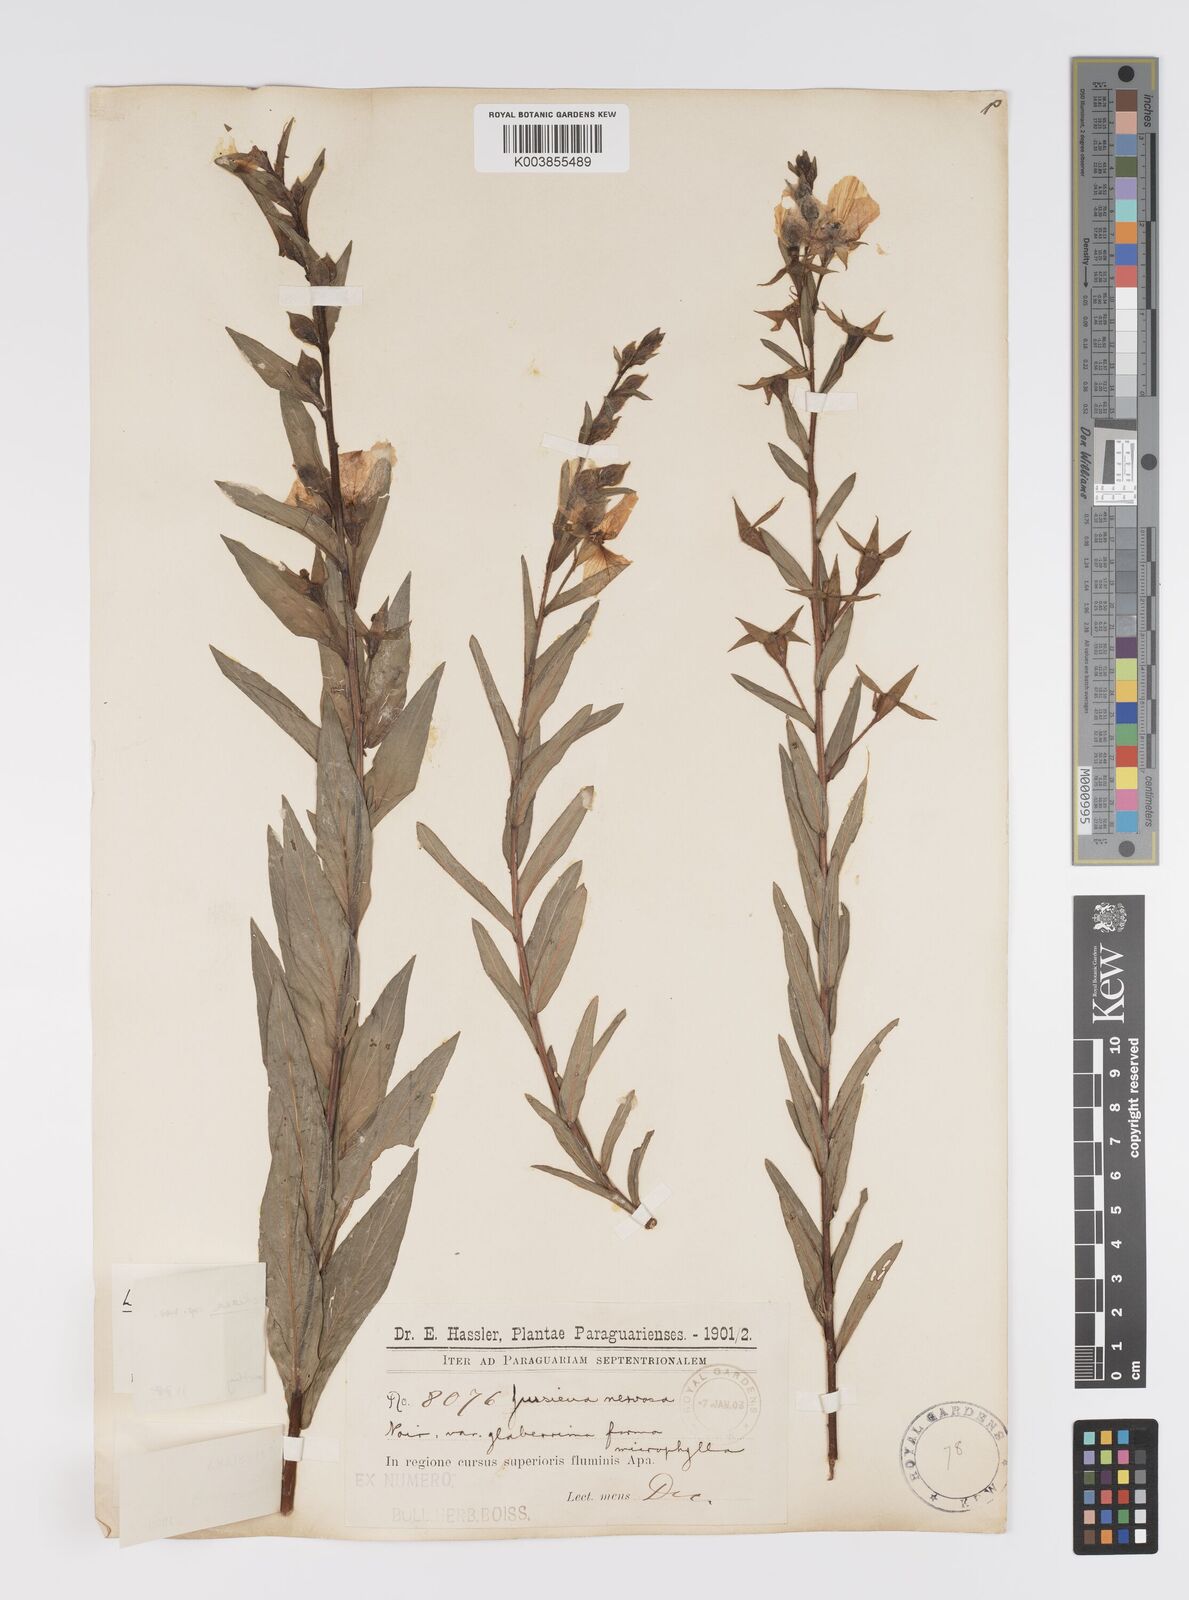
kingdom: Plantae
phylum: Tracheophyta
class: Magnoliopsida
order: Myrtales
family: Onagraceae
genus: Ludwigia
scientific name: Ludwigia
